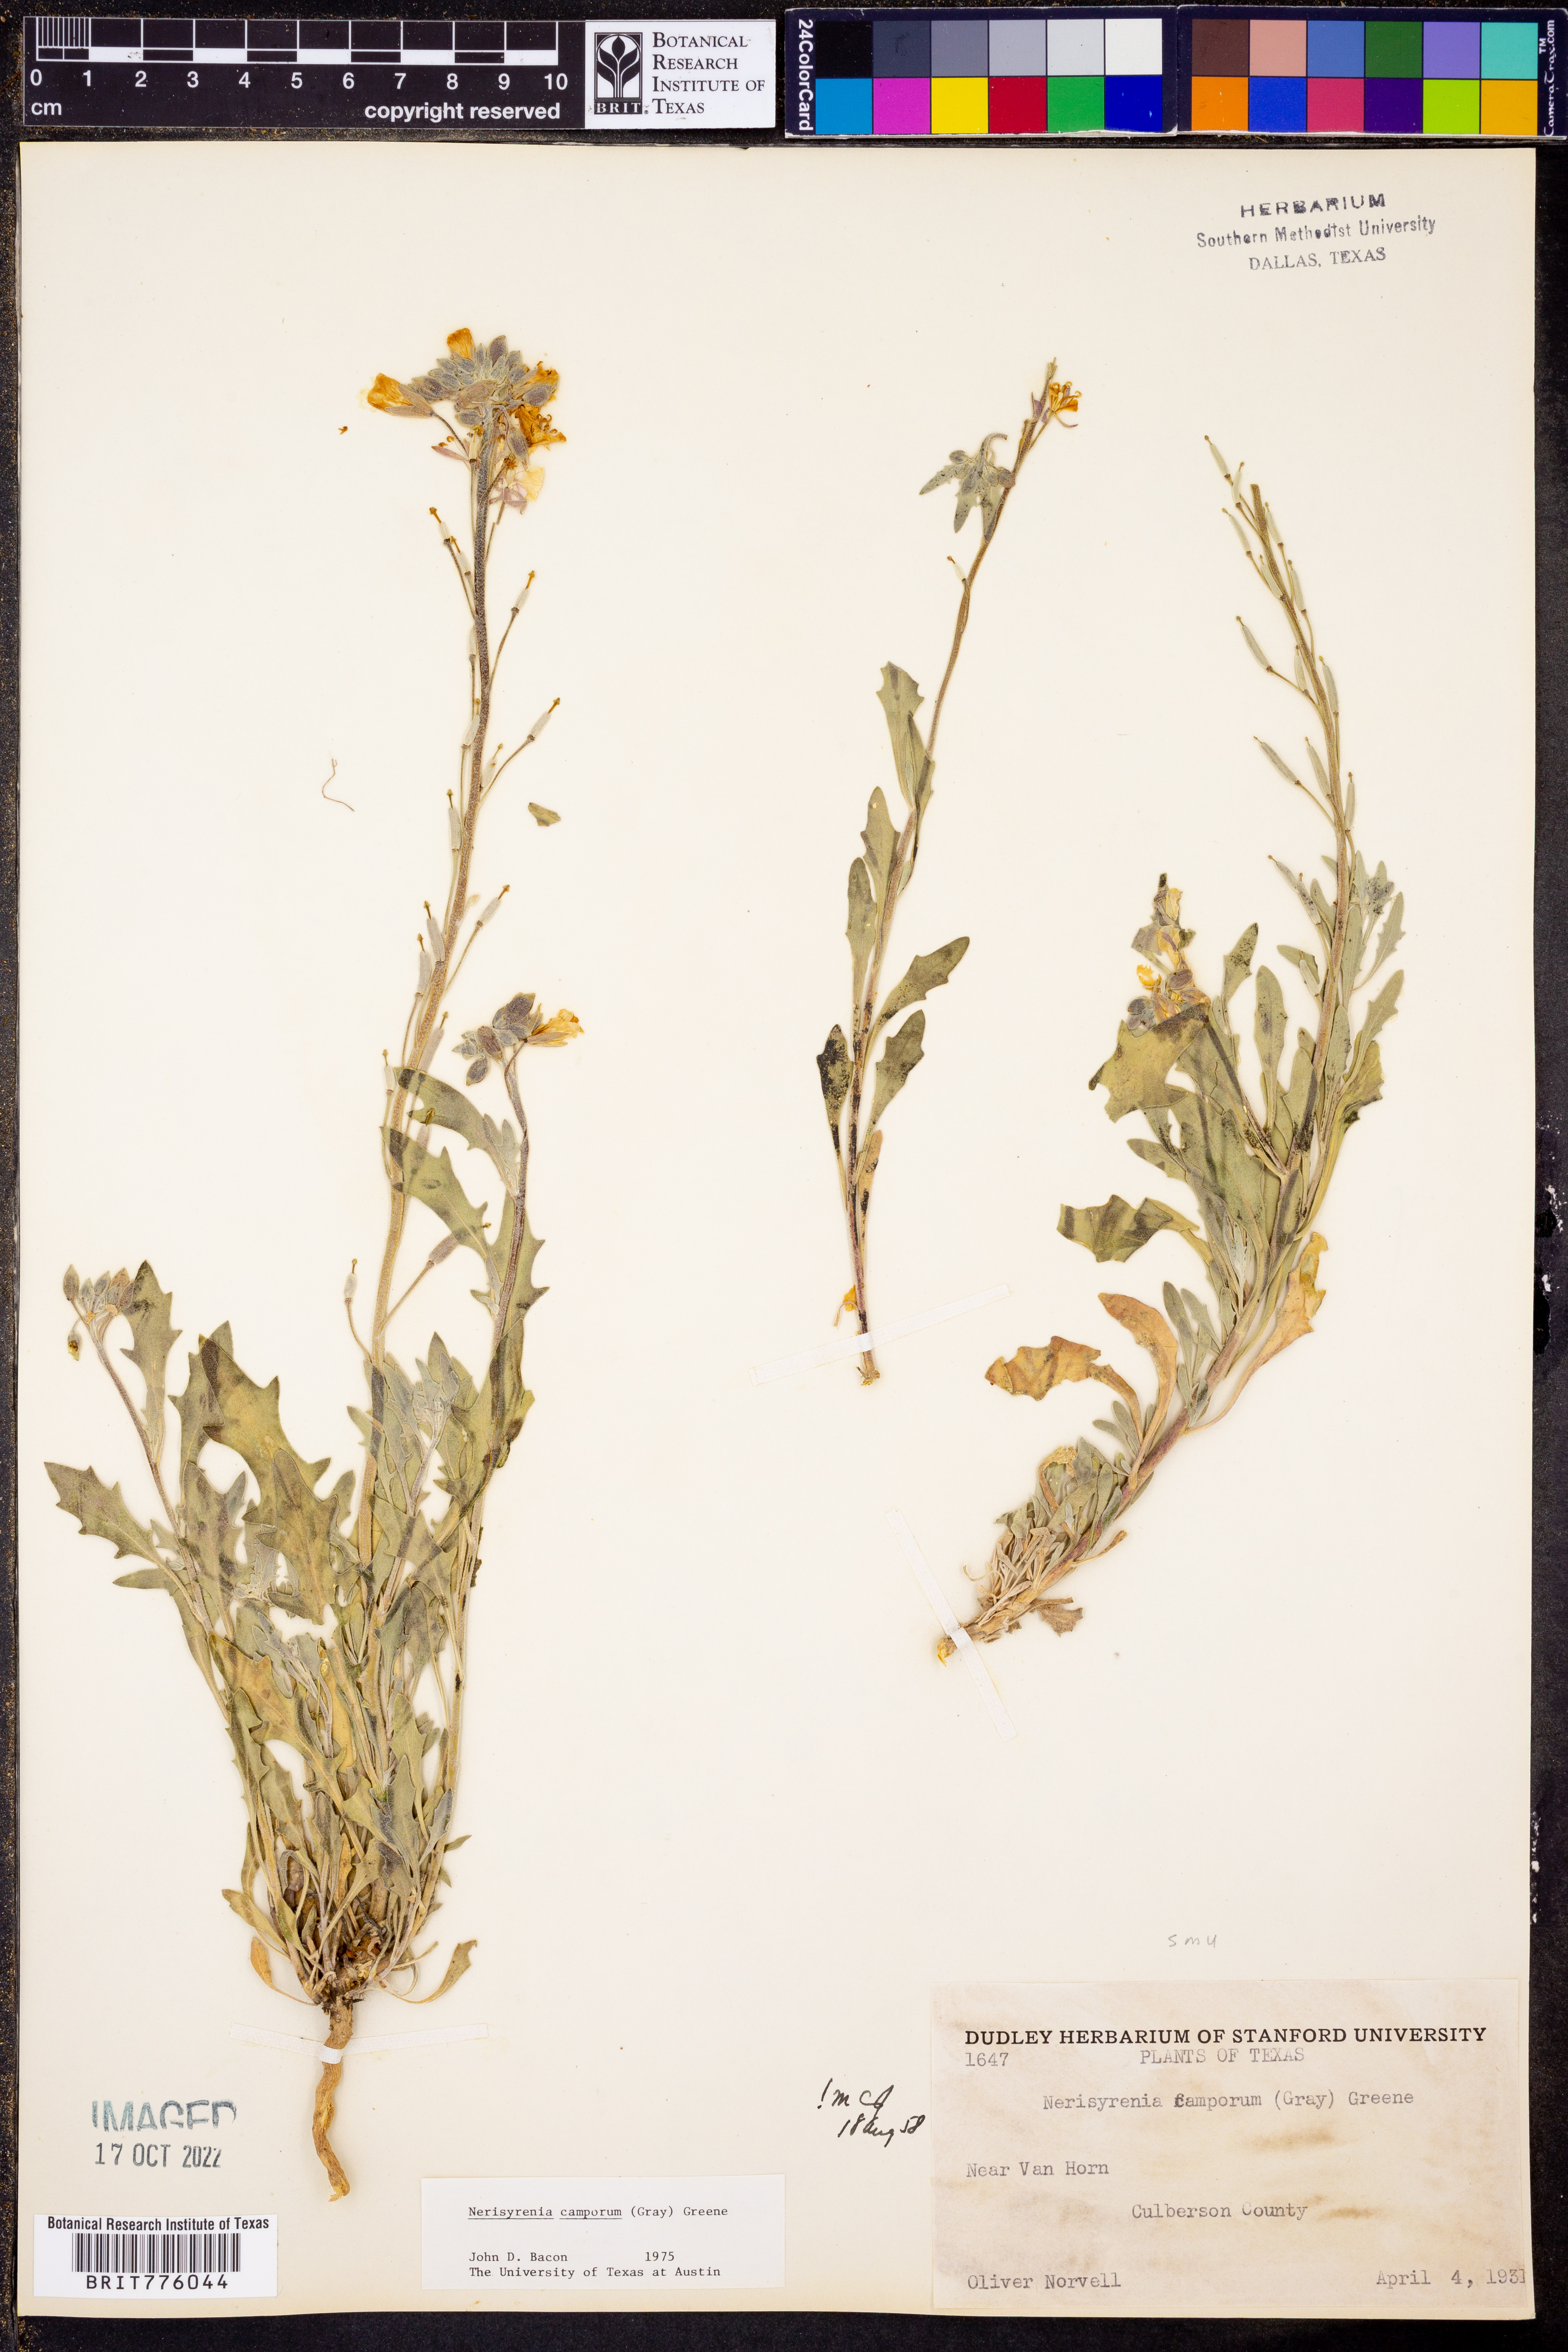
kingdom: Plantae
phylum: Tracheophyta
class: Magnoliopsida
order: Brassicales
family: Brassicaceae
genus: Nerisyrenia
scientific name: Nerisyrenia camporum
